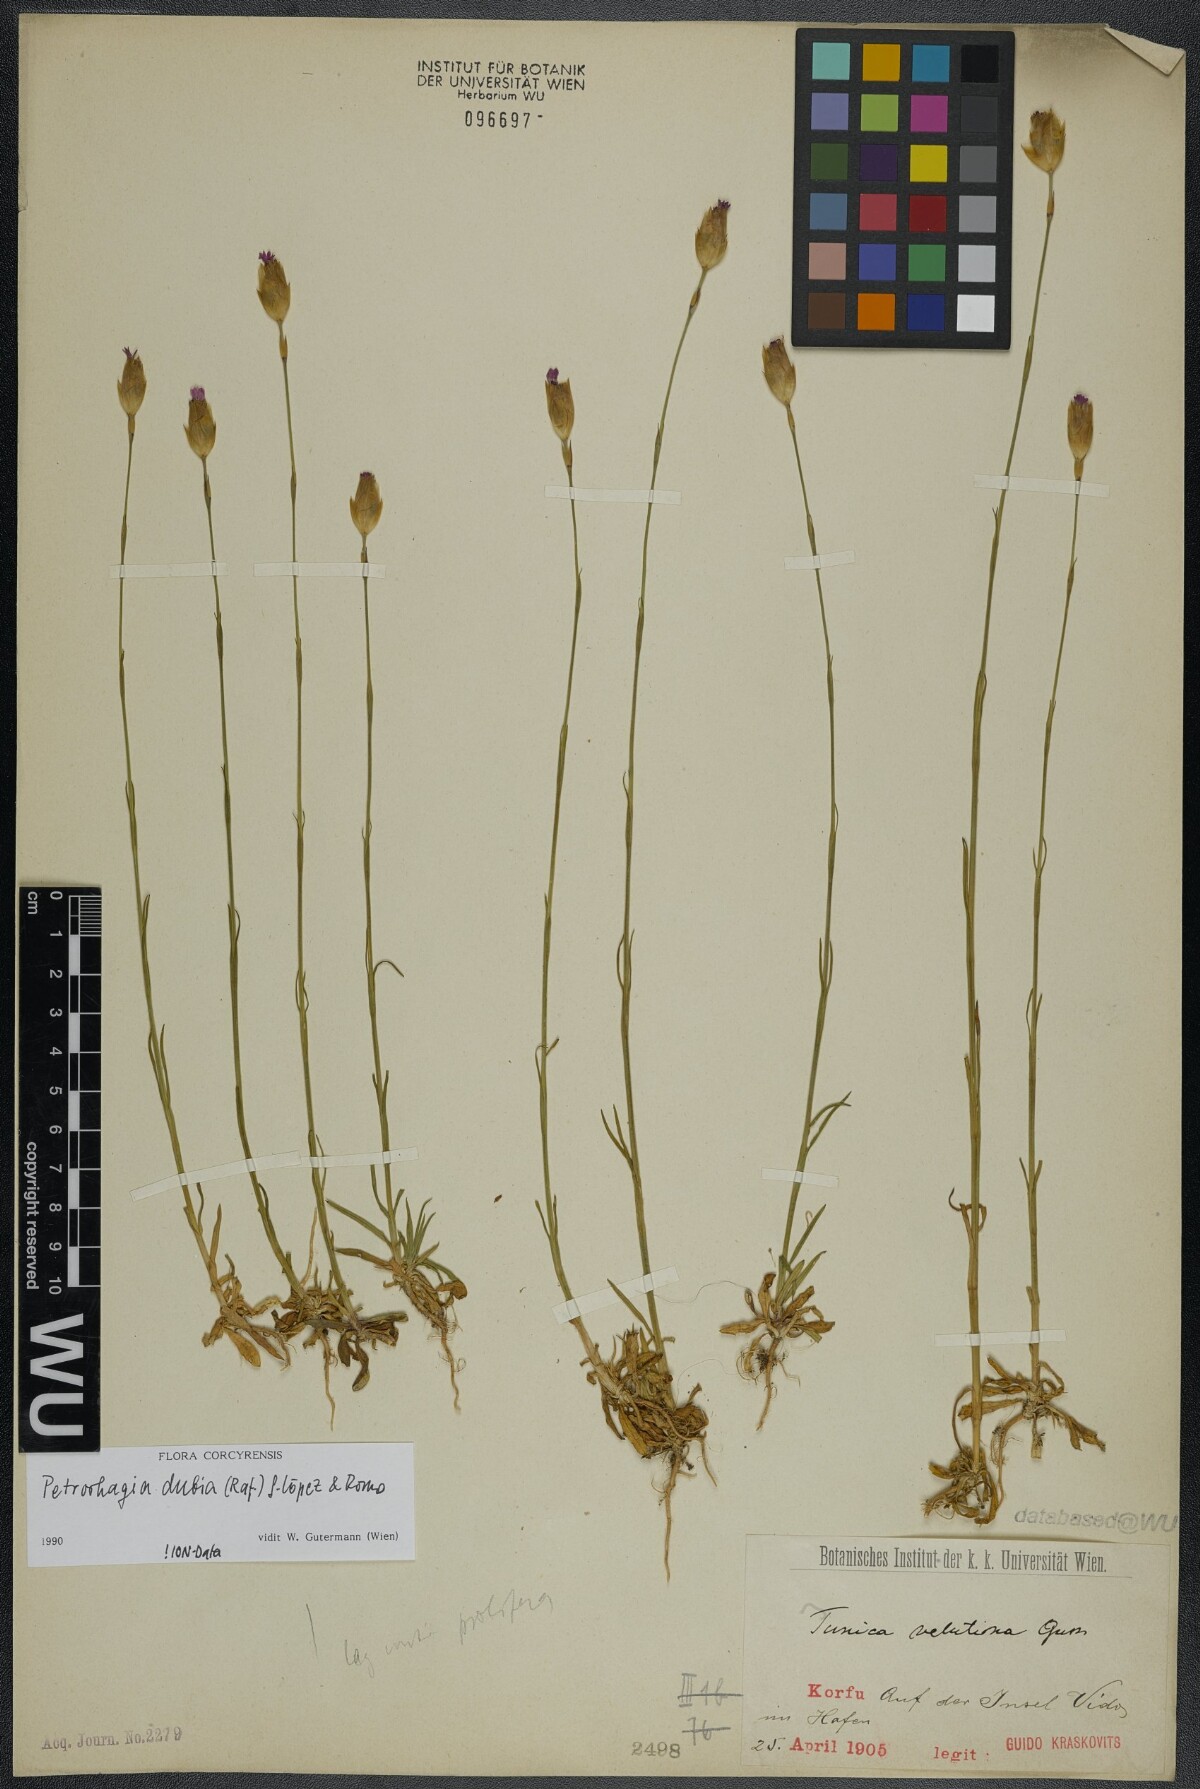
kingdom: Plantae
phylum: Tracheophyta
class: Magnoliopsida
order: Caryophyllales
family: Caryophyllaceae
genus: Petrorhagia
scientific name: Petrorhagia dubia
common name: Hairypink
